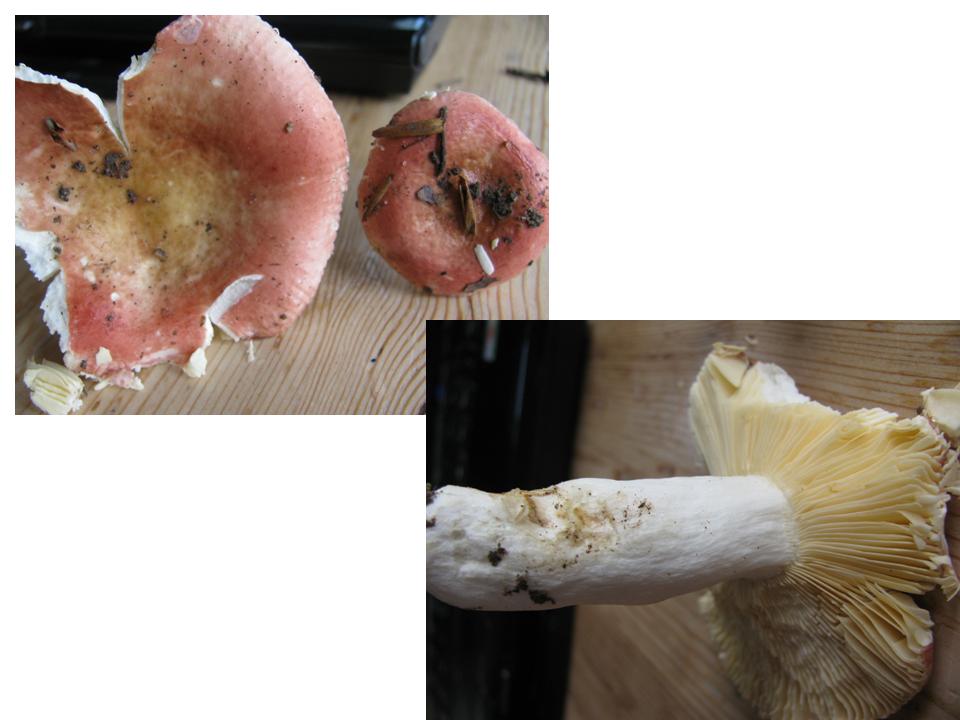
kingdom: Fungi
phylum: Basidiomycota
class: Agaricomycetes
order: Russulales
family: Russulaceae
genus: Russula
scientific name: Russula veternosa
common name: blødkødet skørhat
